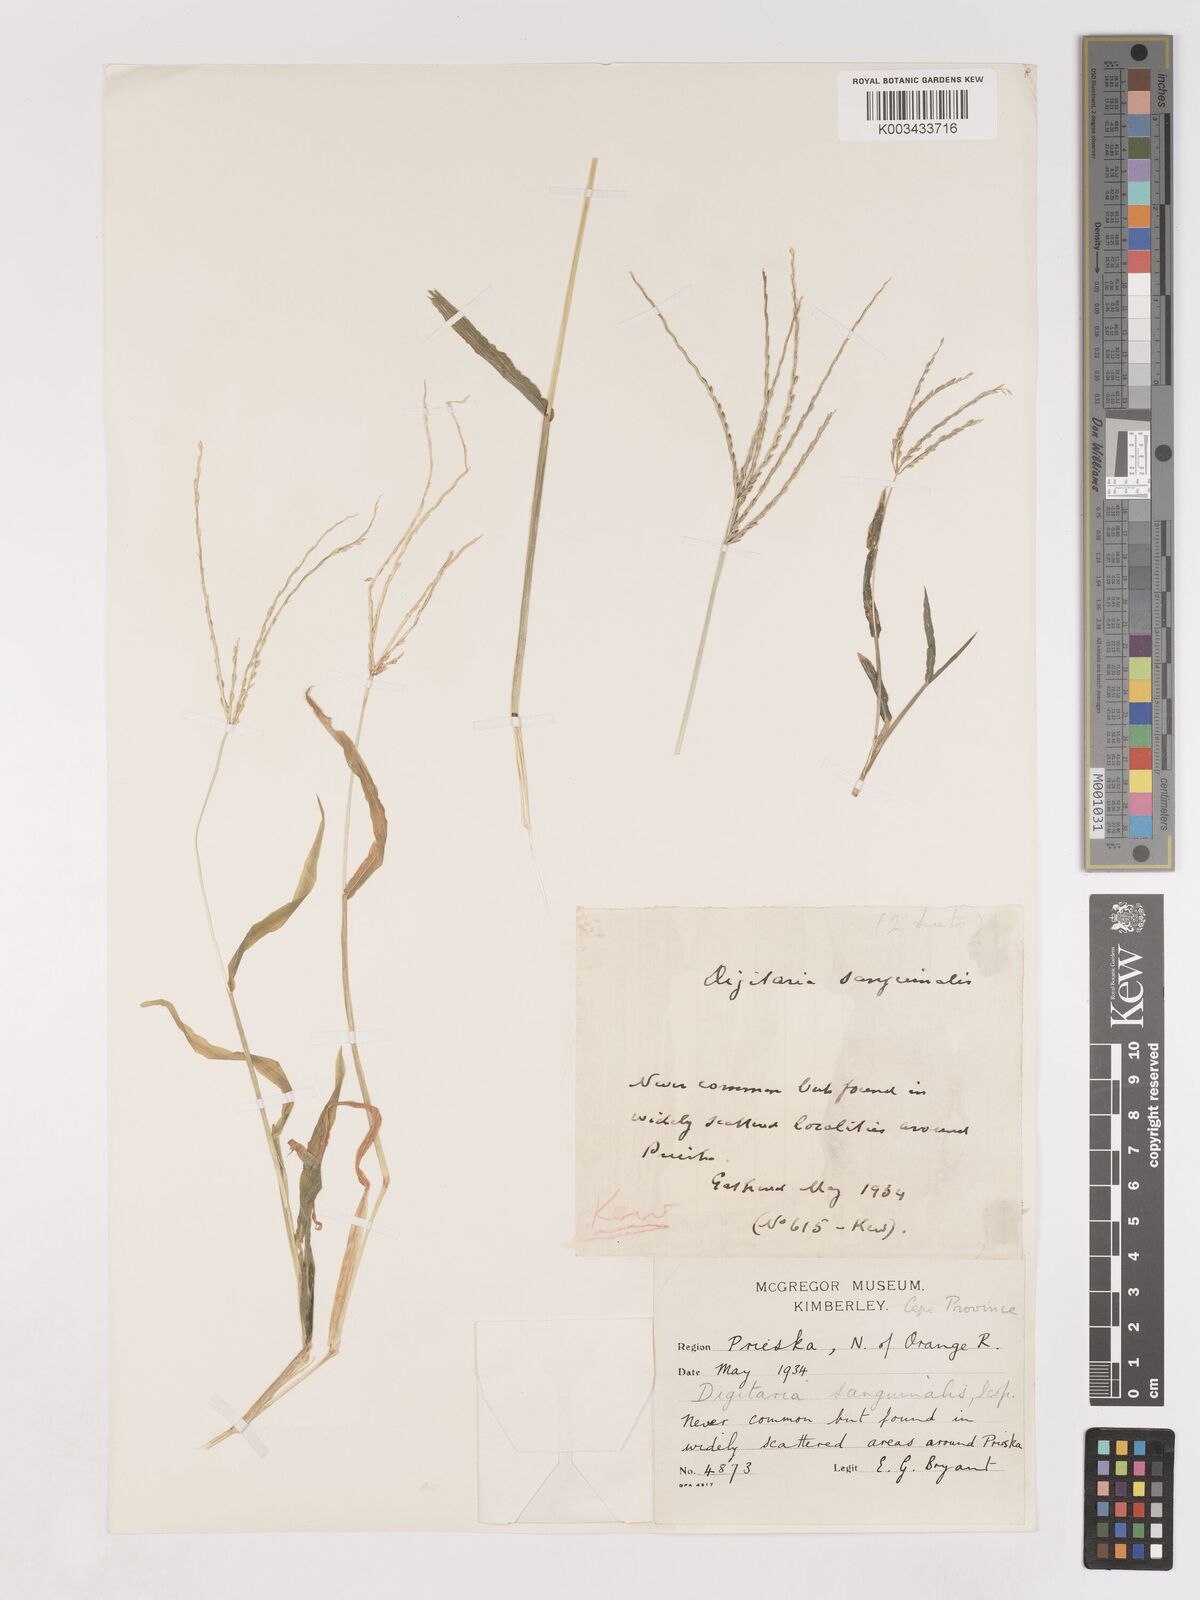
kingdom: Plantae
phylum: Tracheophyta
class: Liliopsida
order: Poales
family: Poaceae
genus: Digitaria
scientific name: Digitaria sanguinalis
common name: Hairy crabgrass
